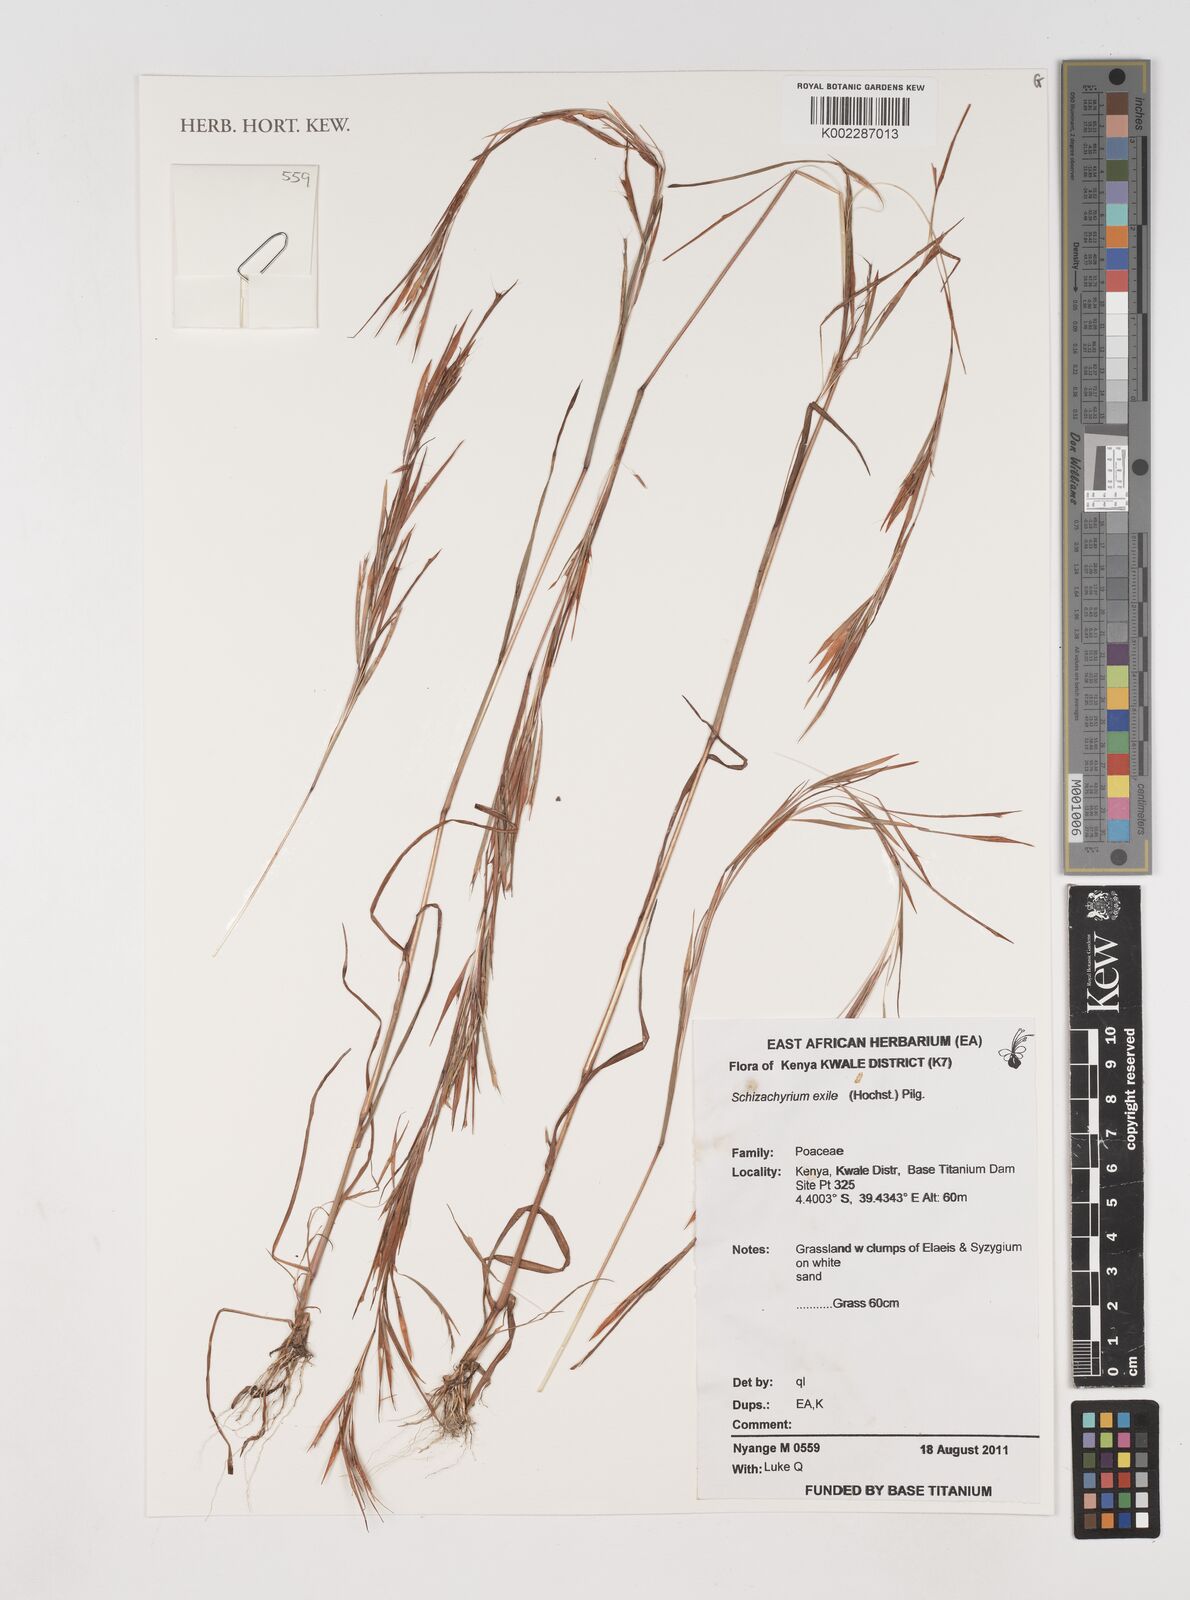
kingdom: Plantae
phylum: Tracheophyta
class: Liliopsida
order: Poales
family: Poaceae
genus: Schizachyrium
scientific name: Schizachyrium exile
